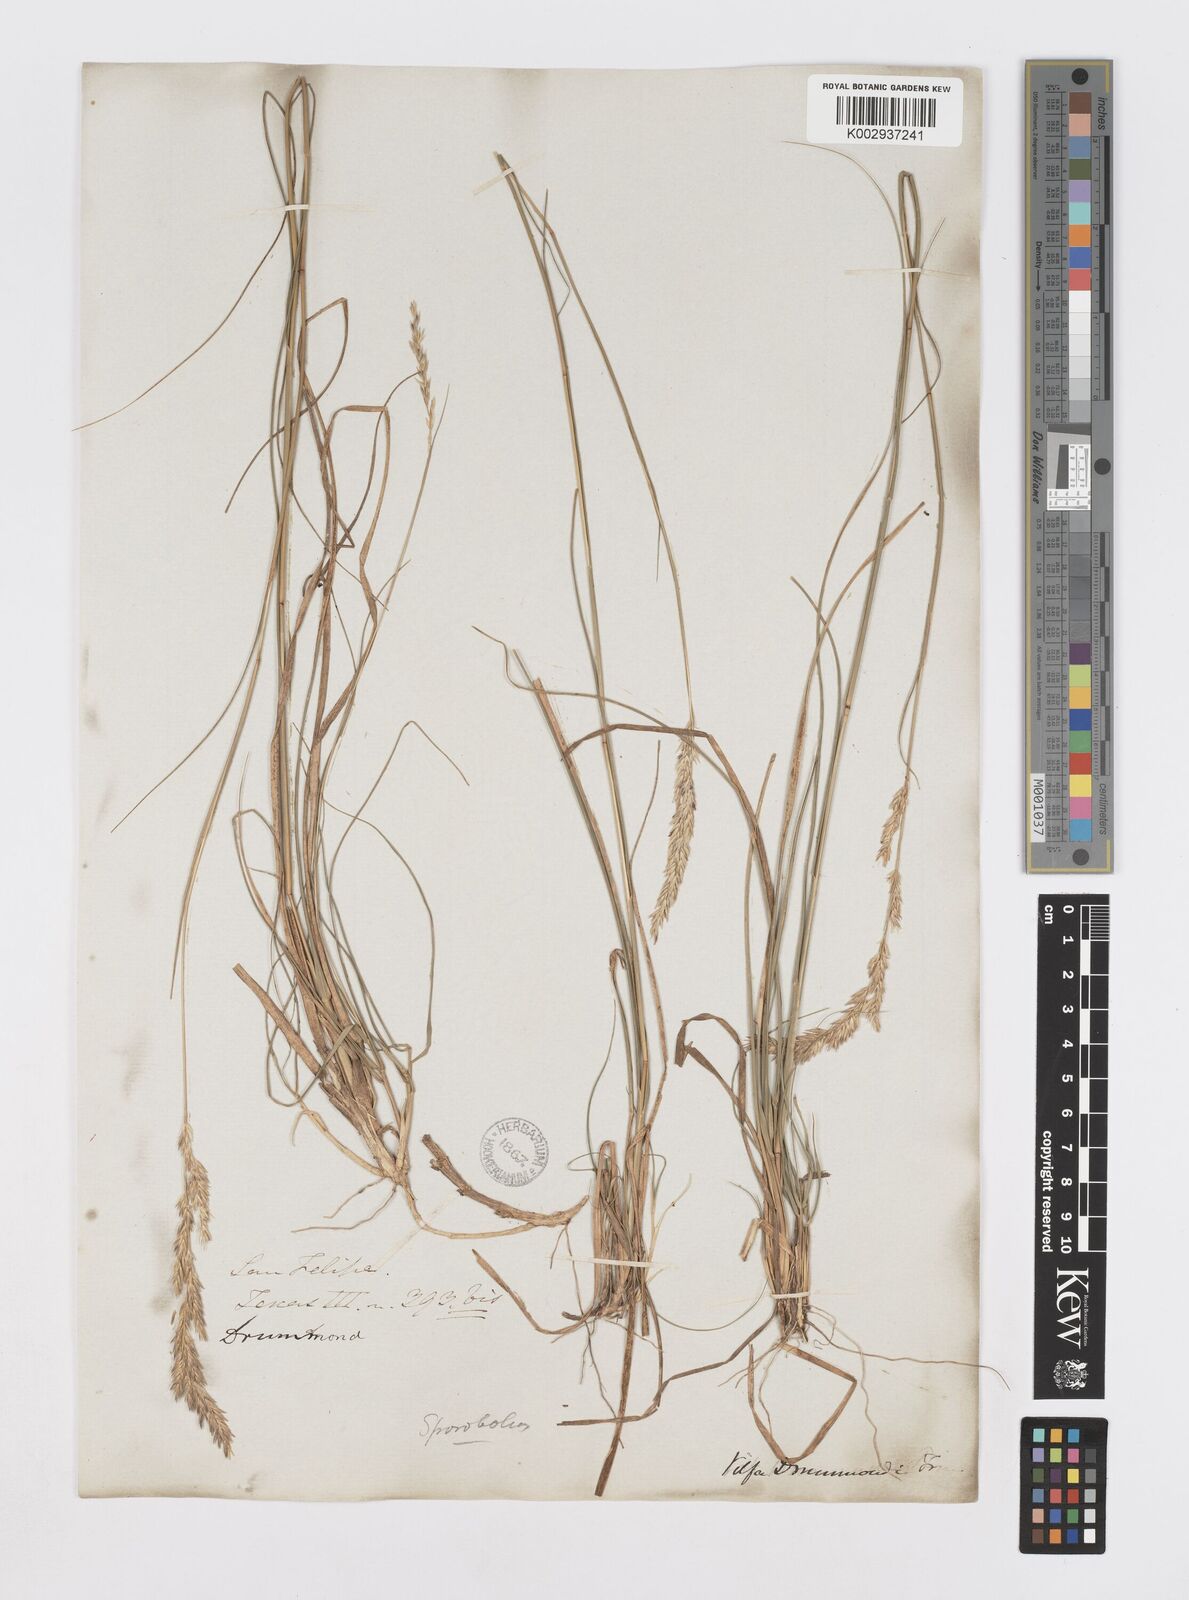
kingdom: Plantae
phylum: Tracheophyta
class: Liliopsida
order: Poales
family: Poaceae
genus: Sporobolus
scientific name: Sporobolus clandestinus
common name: Hidden dropseed
